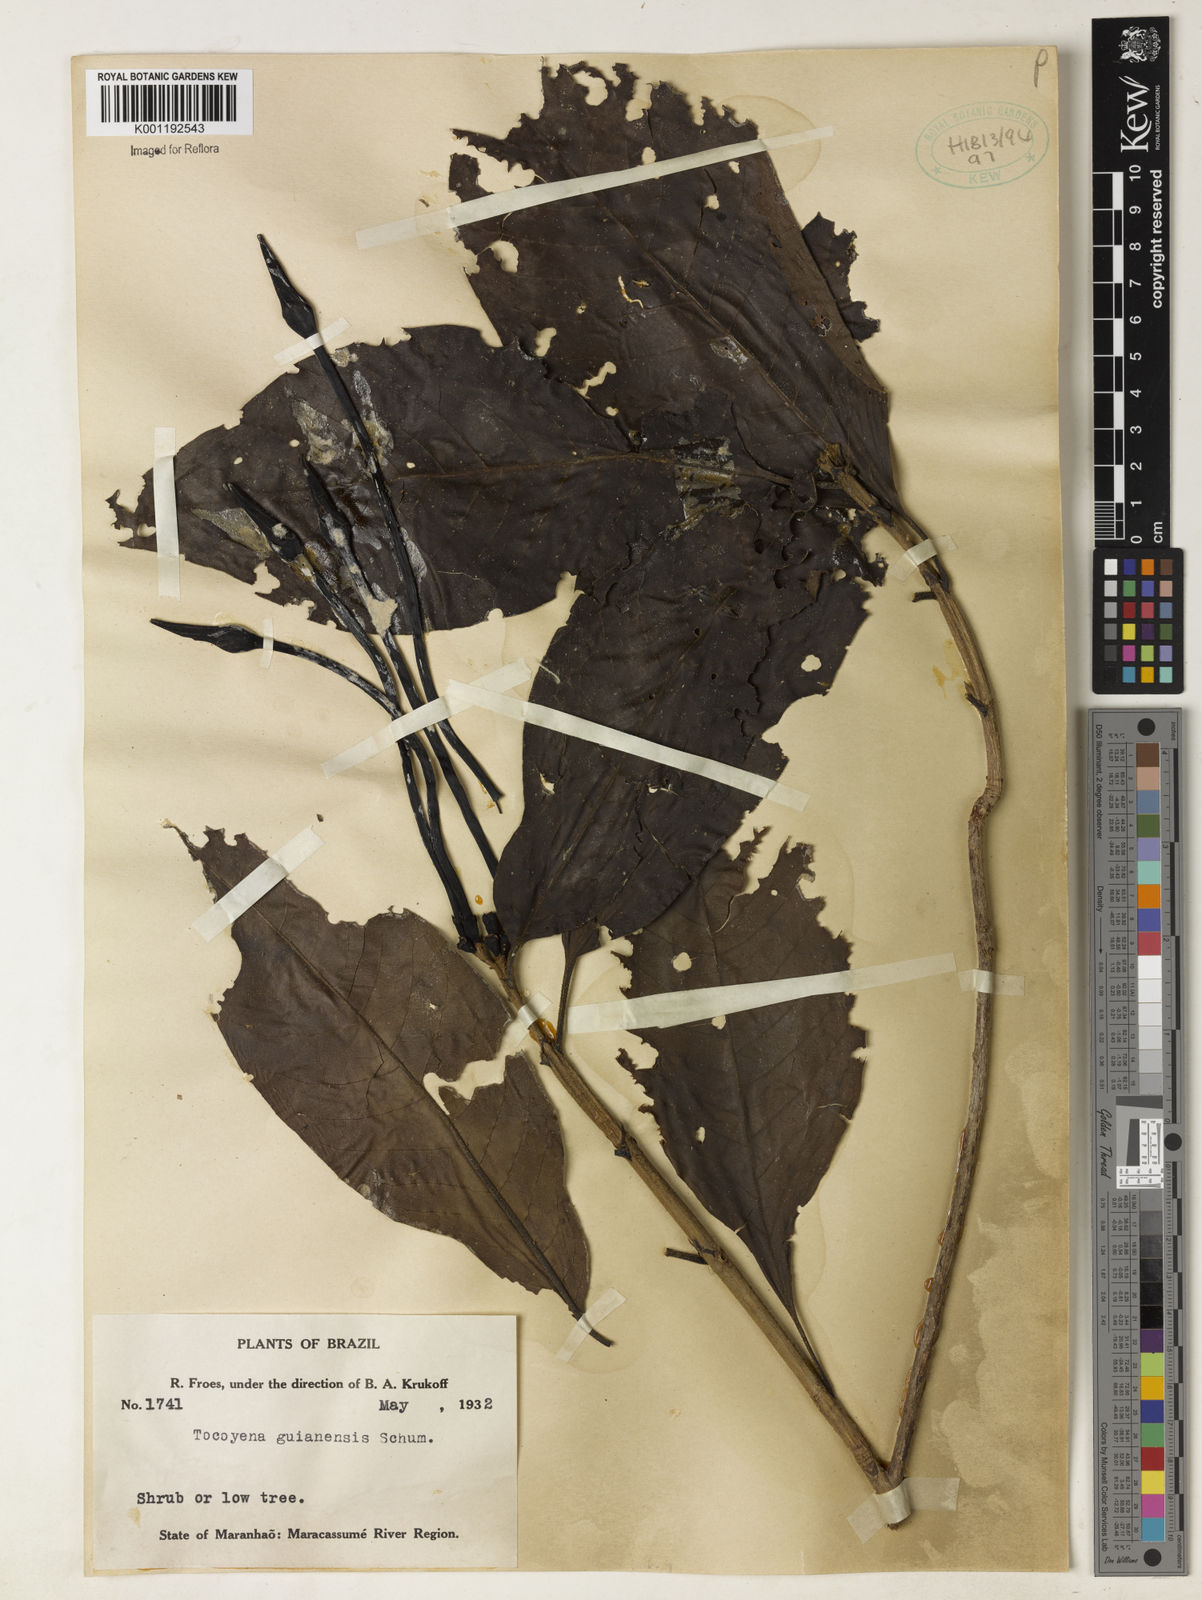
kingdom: Plantae
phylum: Tracheophyta
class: Magnoliopsida
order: Gentianales
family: Rubiaceae
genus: Tocoyena
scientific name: Tocoyena guianensis
